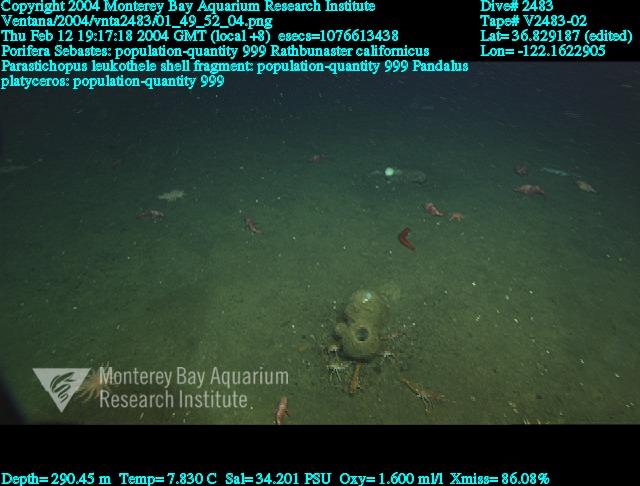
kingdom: Animalia
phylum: Porifera
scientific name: Porifera
